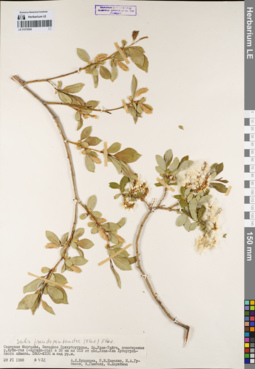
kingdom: Plantae
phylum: Tracheophyta
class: Magnoliopsida
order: Malpighiales
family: Salicaceae
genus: Salix
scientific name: Salix pseudopentandra
